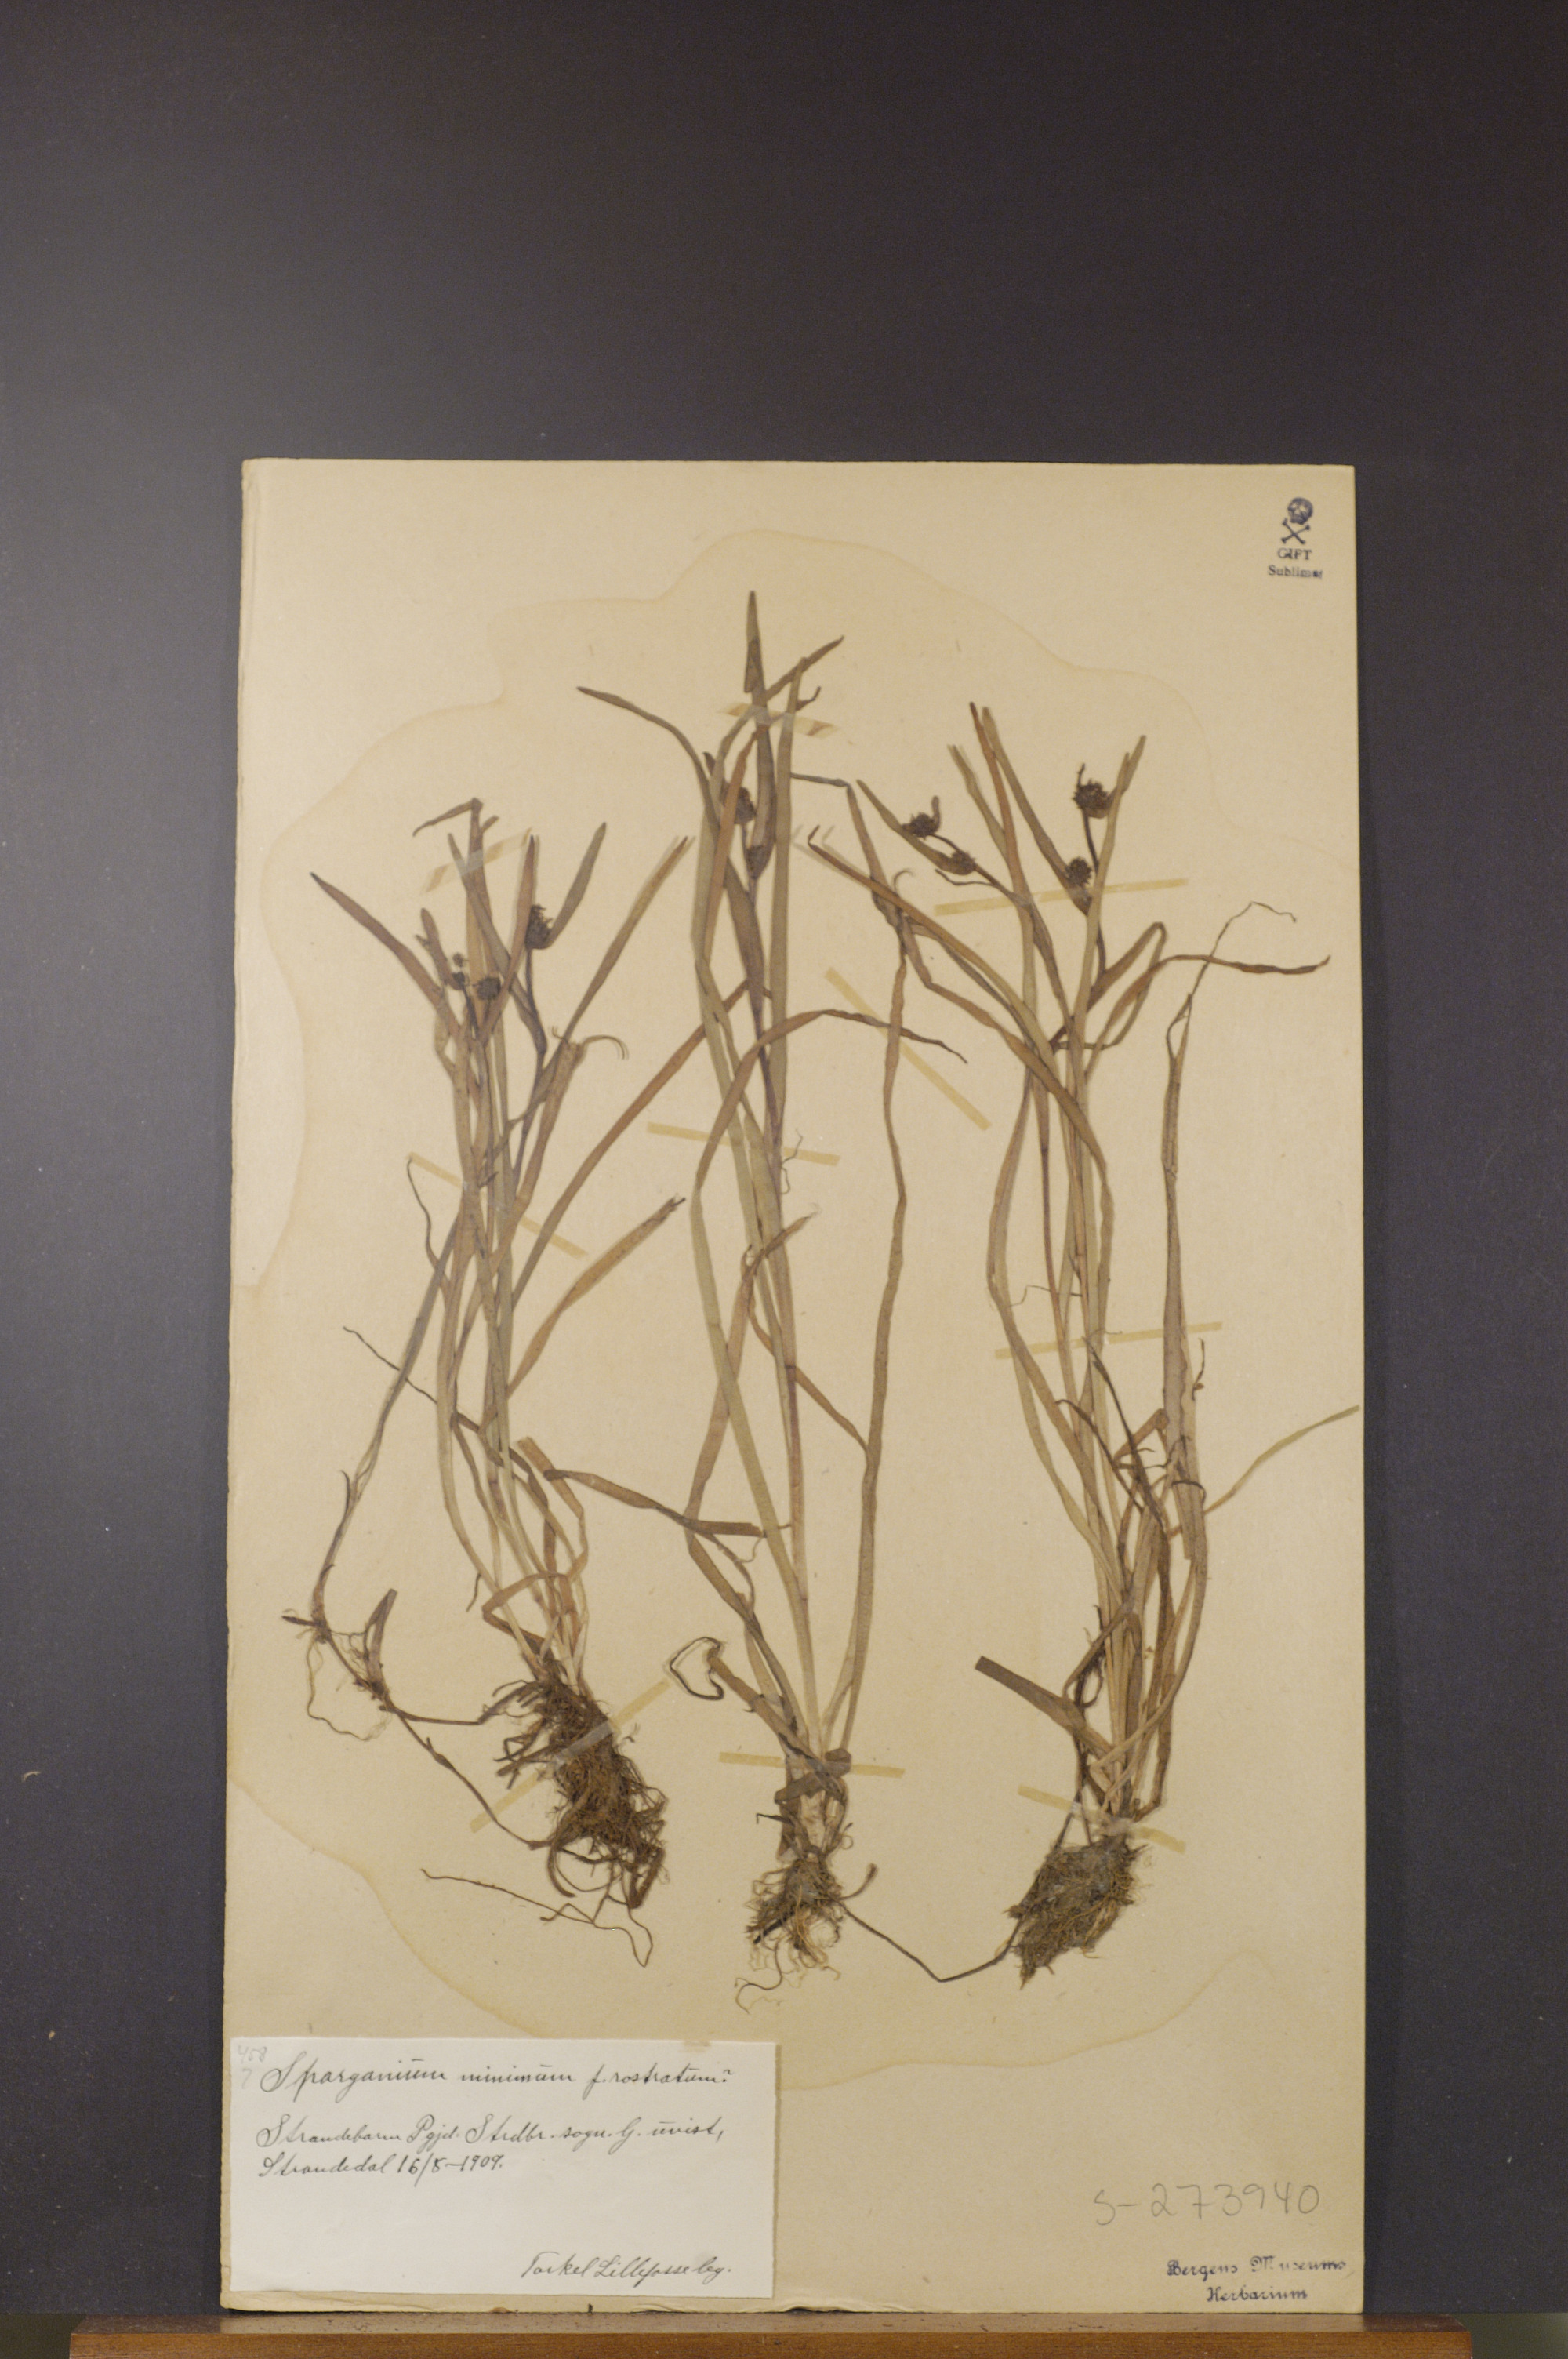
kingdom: Plantae
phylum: Tracheophyta
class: Liliopsida
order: Poales
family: Typhaceae
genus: Sparganium
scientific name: Sparganium natans
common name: Least bur-reed
